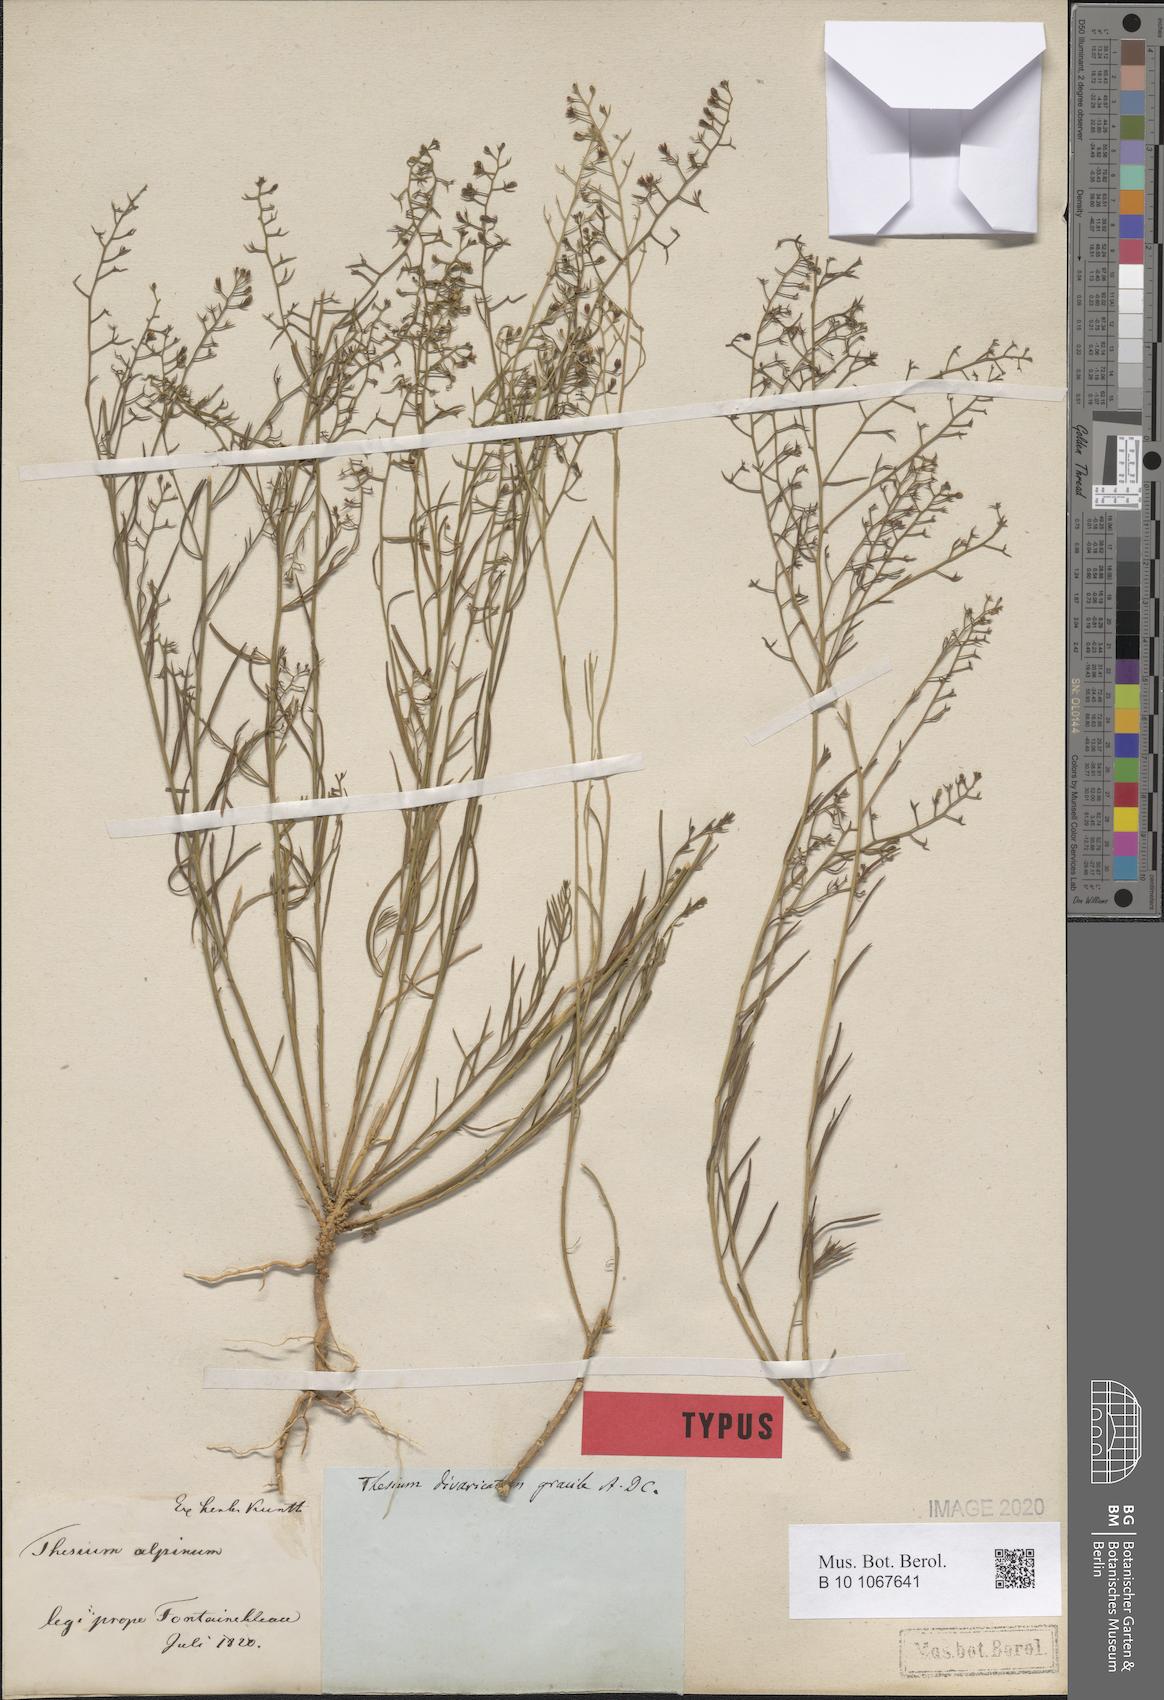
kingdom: Plantae
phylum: Tracheophyta
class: Magnoliopsida
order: Santalales
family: Thesiaceae
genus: Thesium
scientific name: Thesium divaricatum
